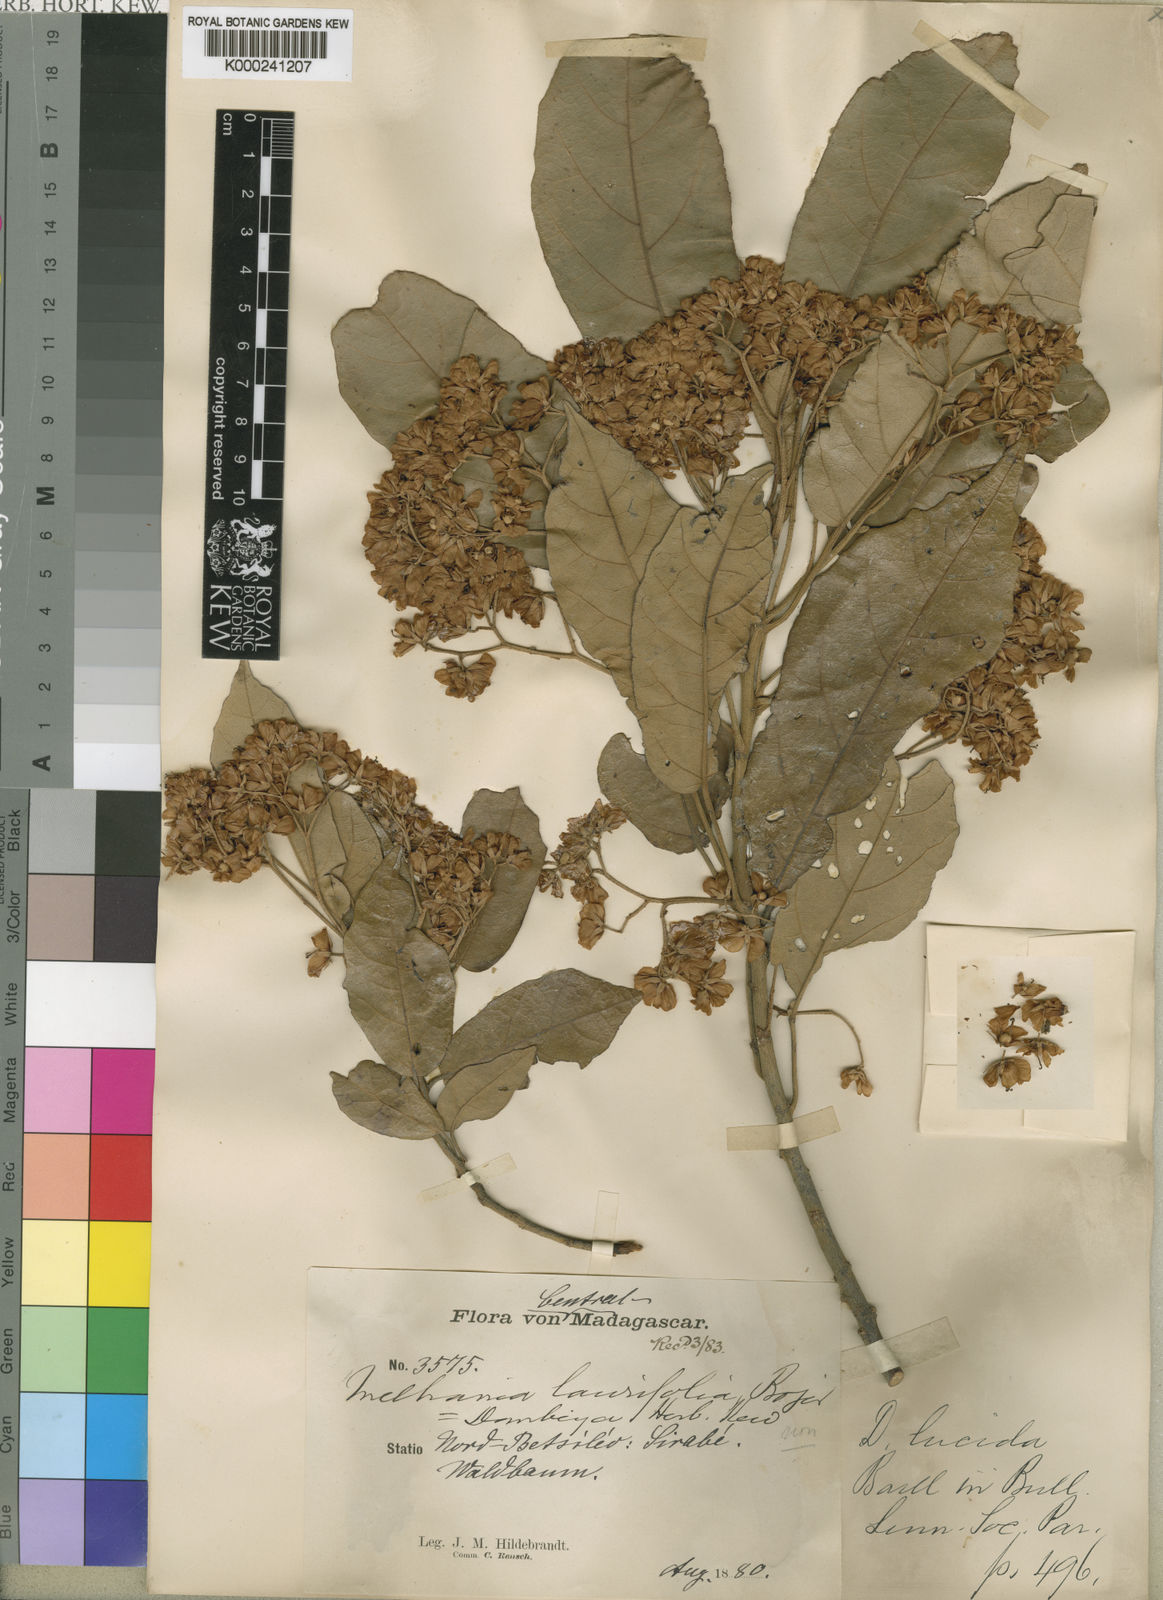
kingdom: Plantae
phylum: Tracheophyta
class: Magnoliopsida
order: Malvales
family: Malvaceae
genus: Dombeya
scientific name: Dombeya lucida
